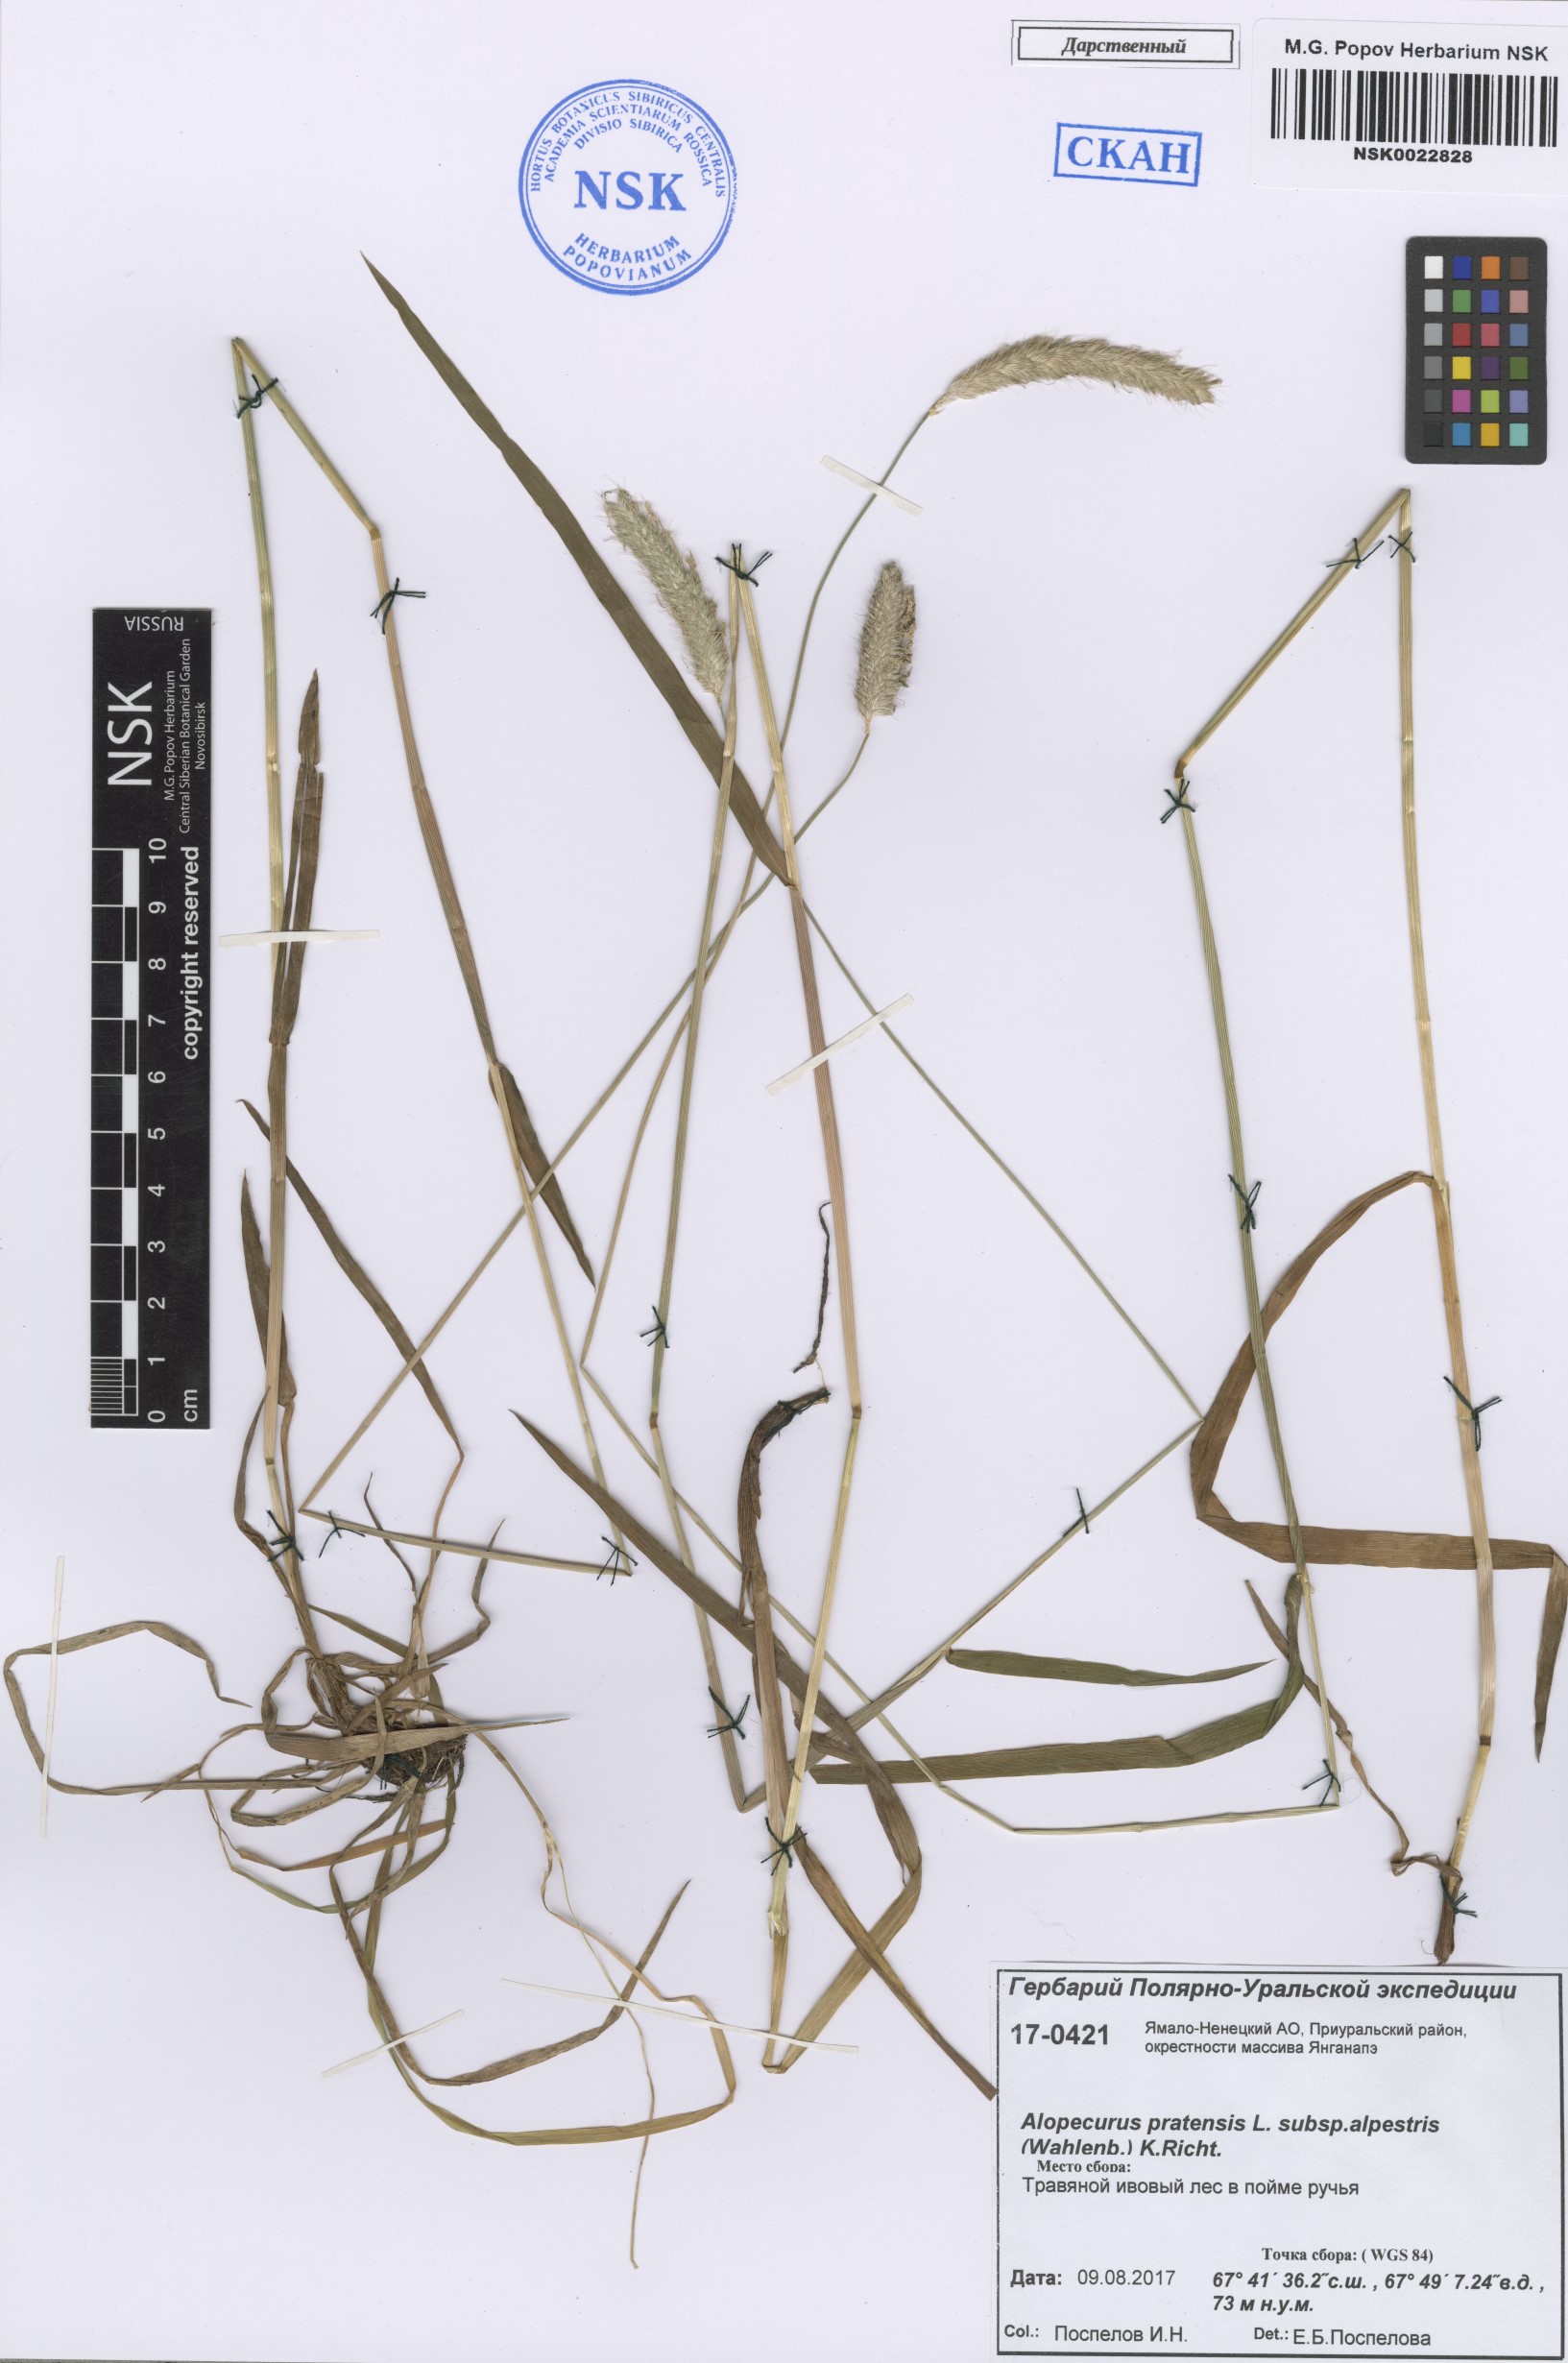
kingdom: Plantae
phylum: Tracheophyta
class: Liliopsida
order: Poales
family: Poaceae
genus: Alopecurus
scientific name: Alopecurus pratensis
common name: Meadow foxtail
